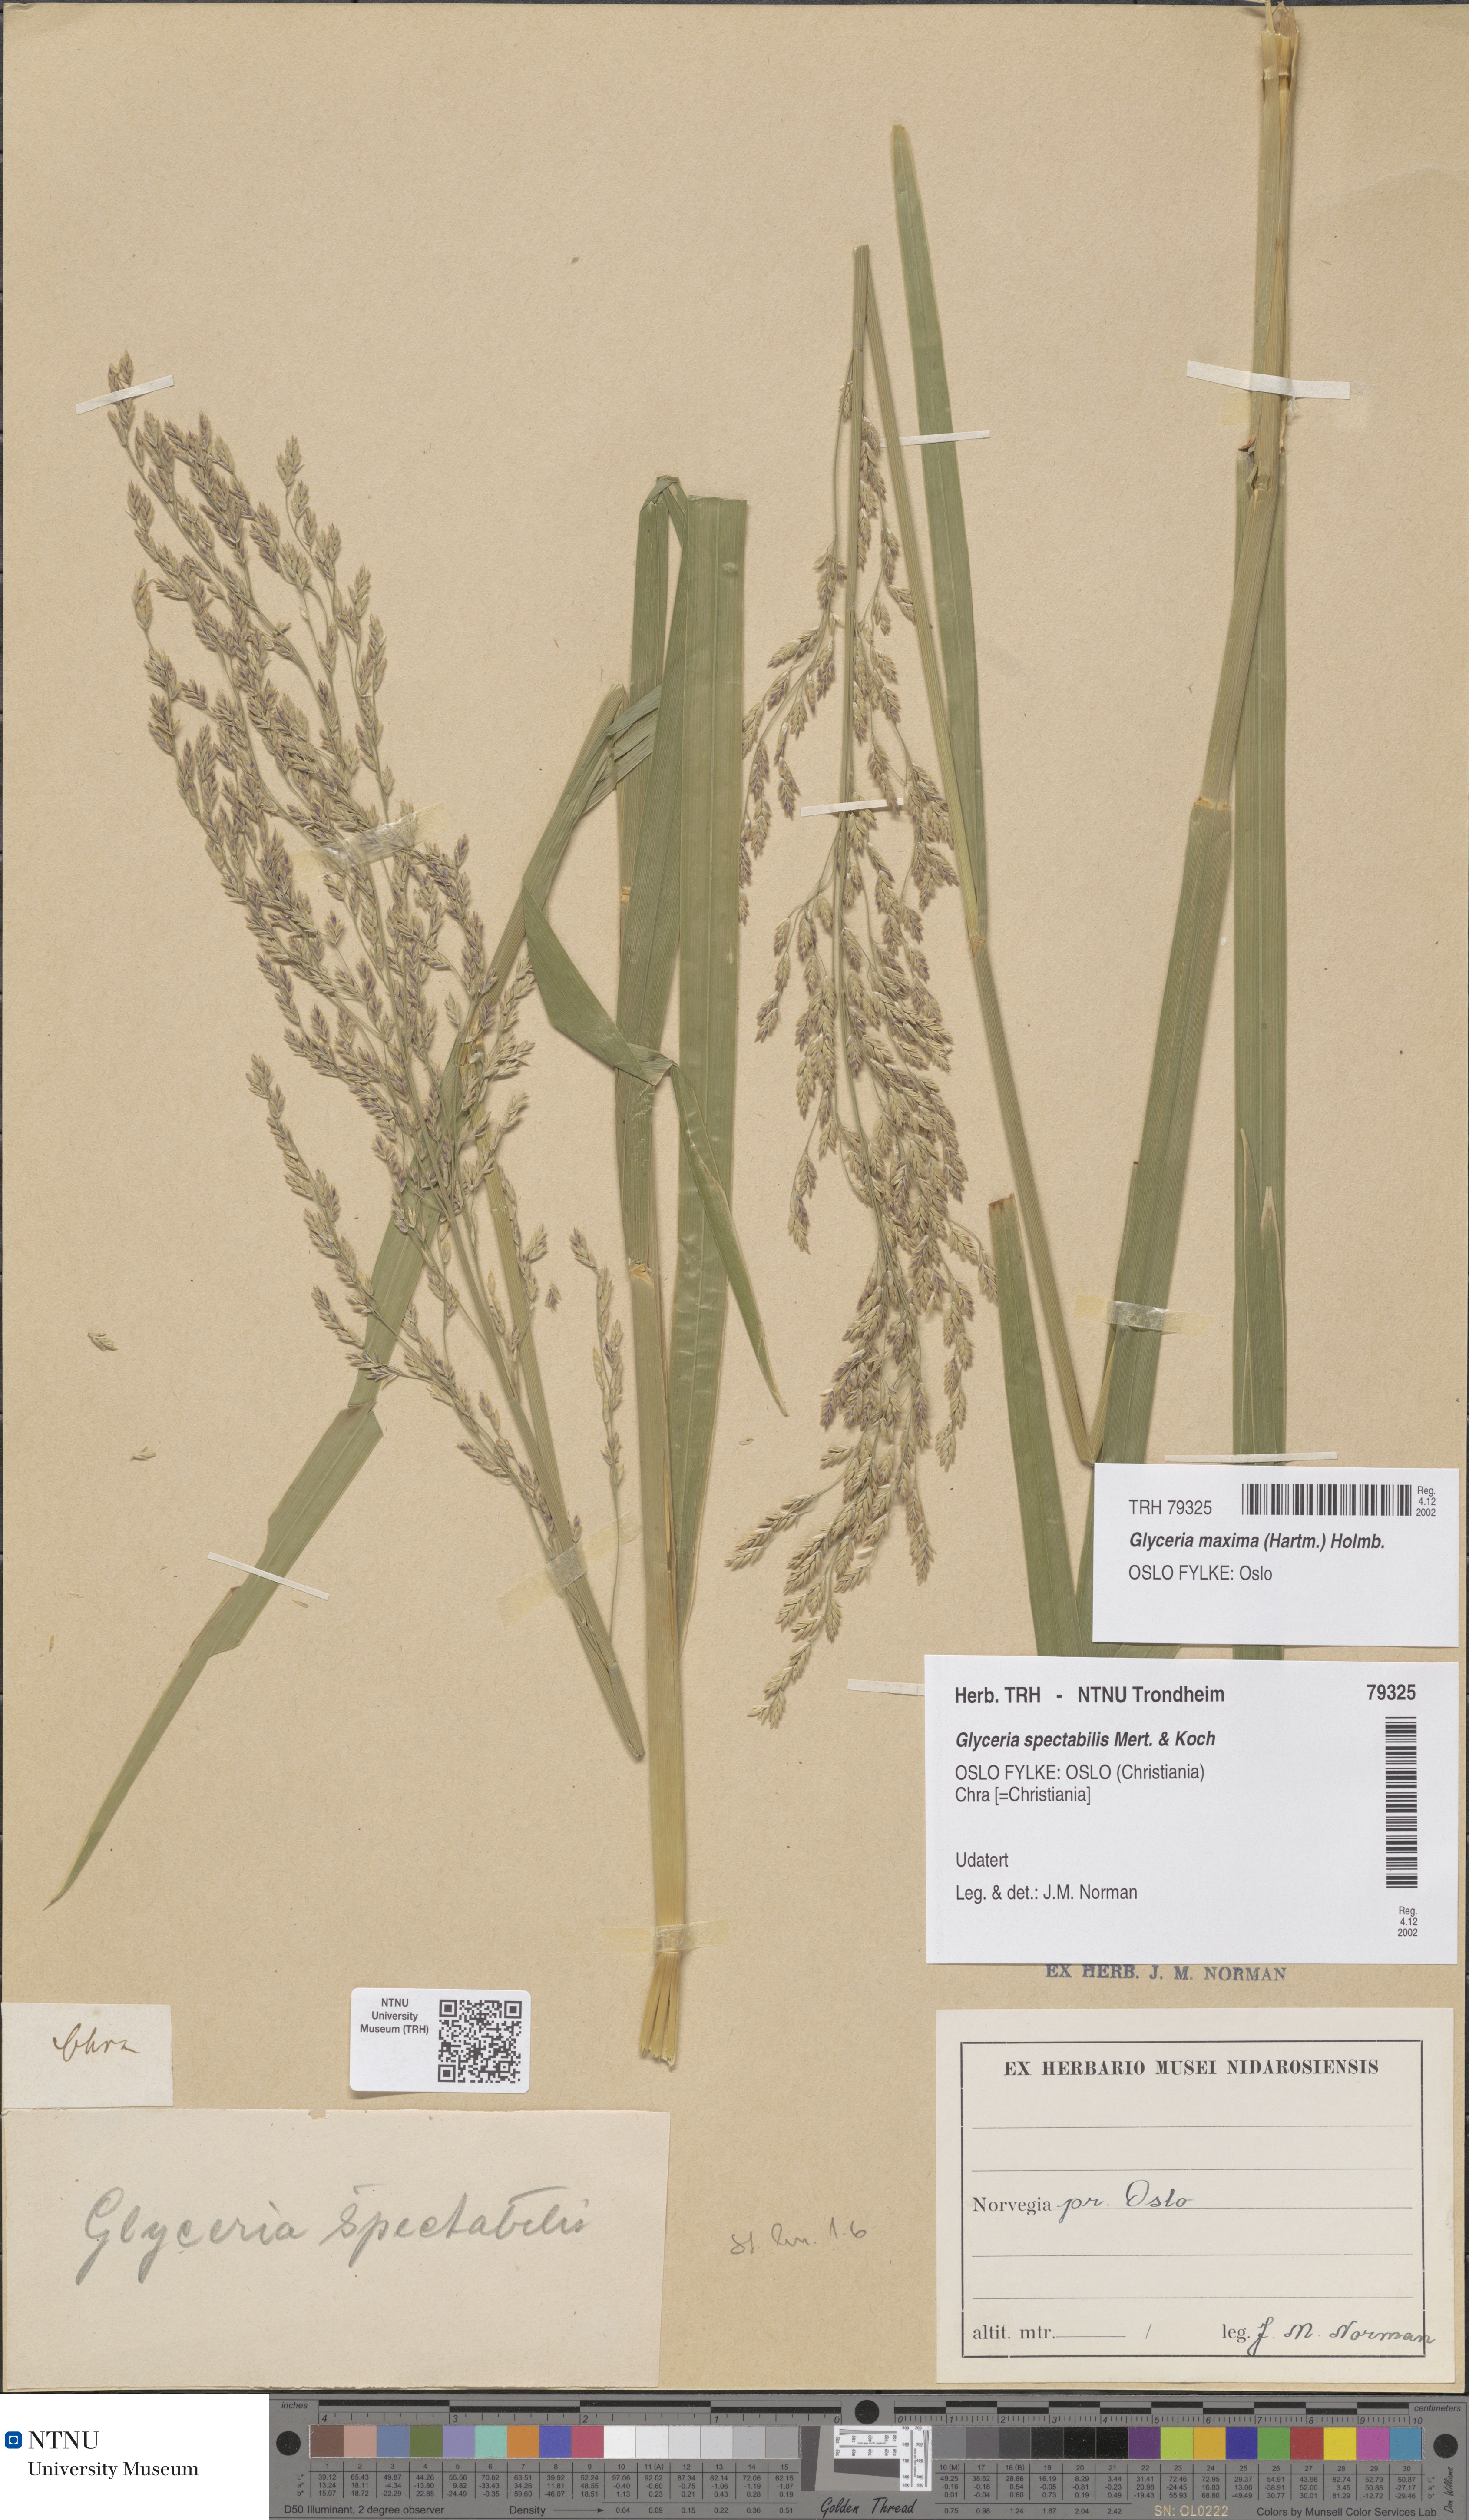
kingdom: Plantae
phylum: Tracheophyta
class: Liliopsida
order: Poales
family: Poaceae
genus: Glyceria
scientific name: Glyceria maxima
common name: Reed mannagrass
